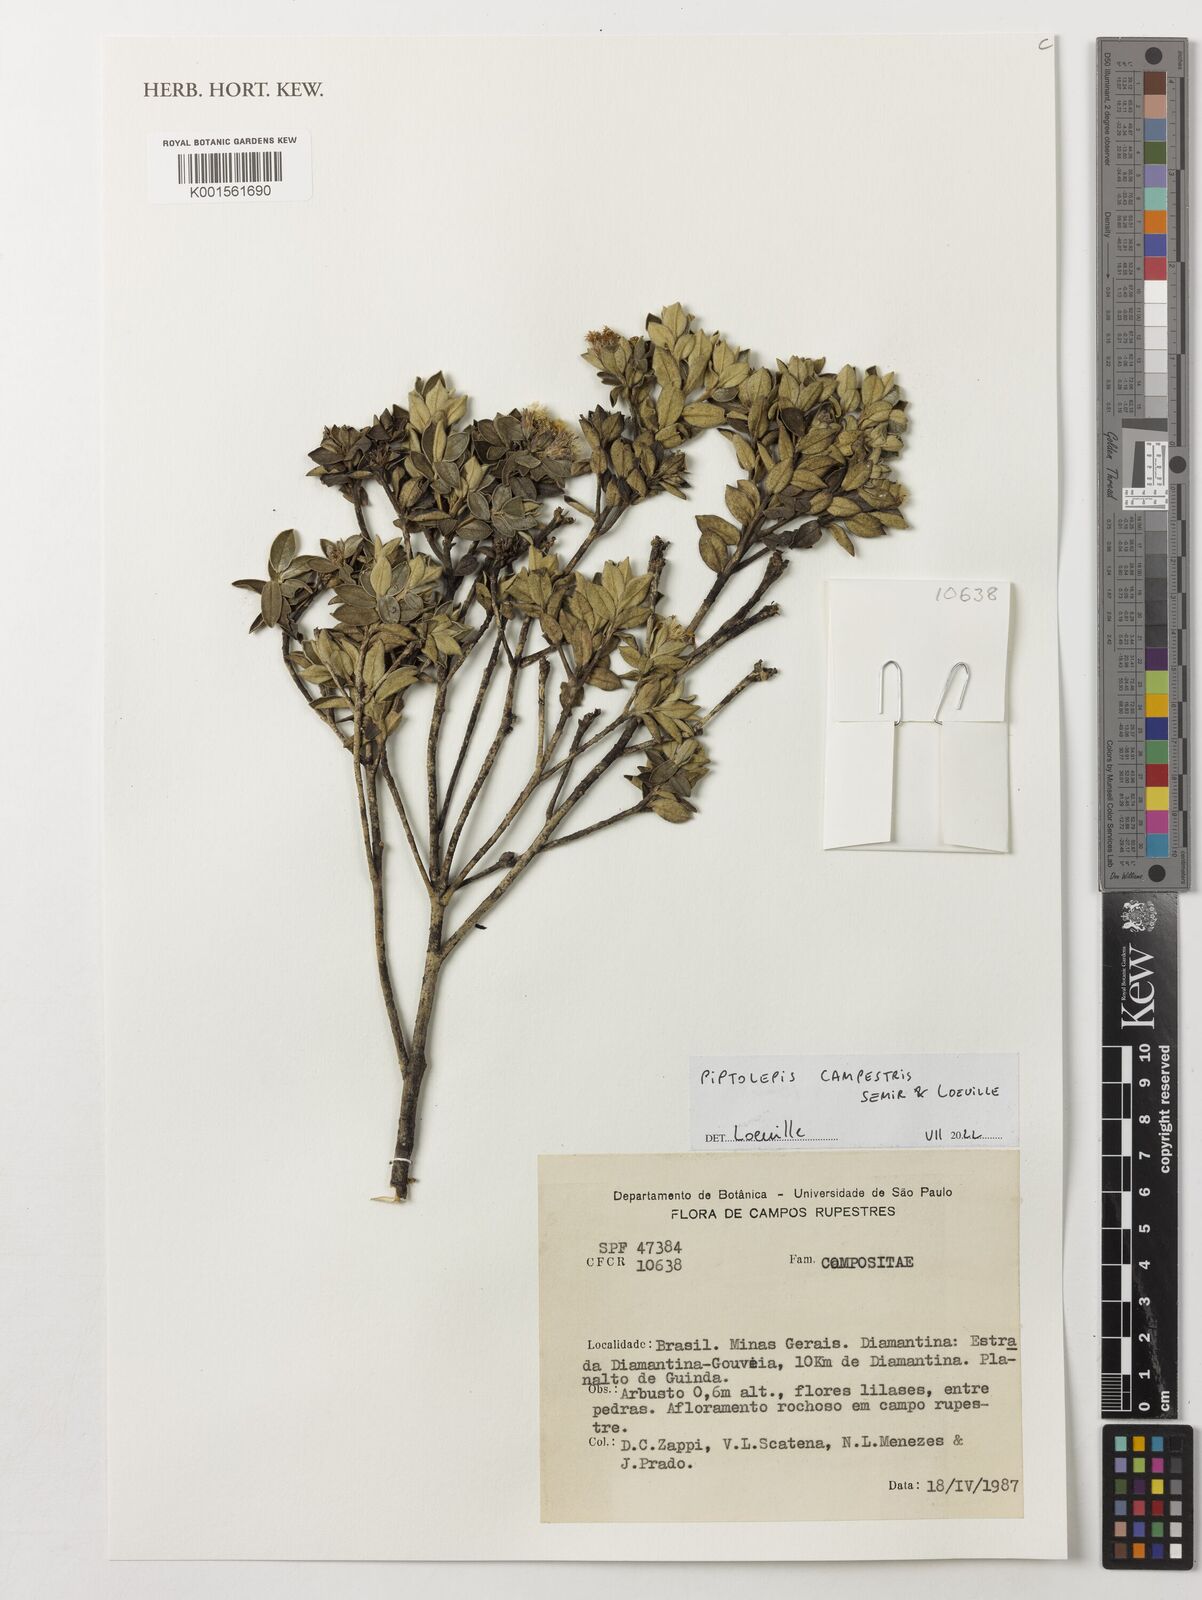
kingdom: Plantae
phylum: Tracheophyta
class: Magnoliopsida
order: Asterales
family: Asteraceae
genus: Piptolepis
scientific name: Piptolepis campestris
